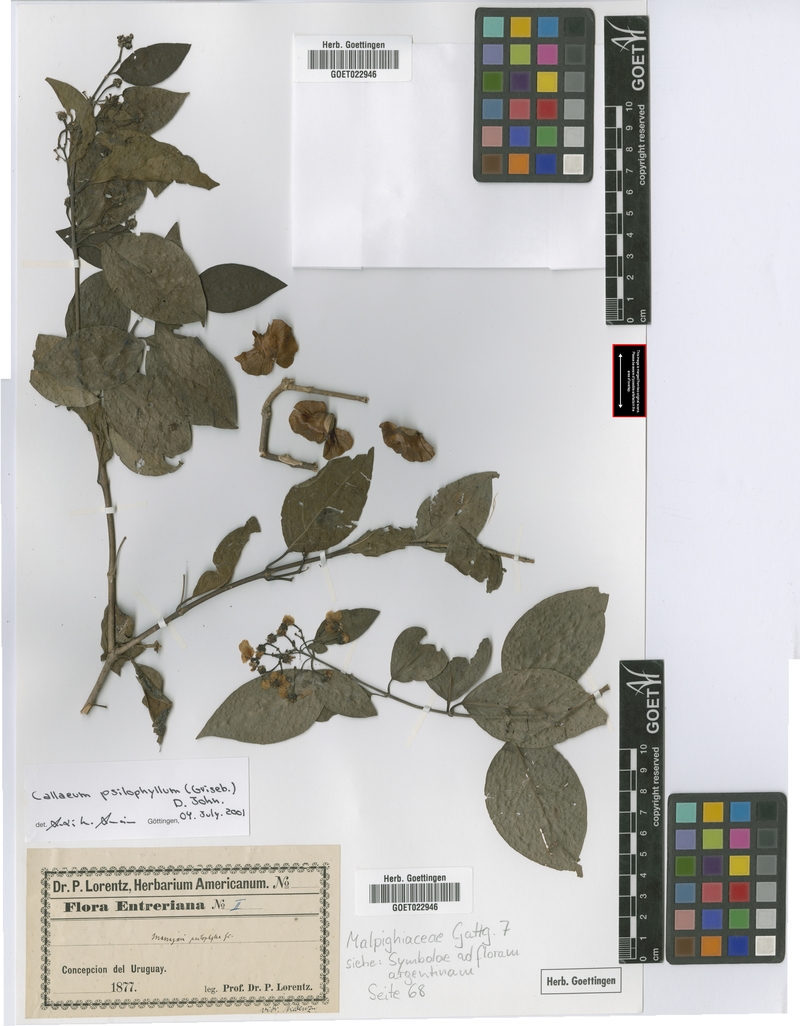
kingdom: Plantae
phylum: Tracheophyta
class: Magnoliopsida
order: Malpighiales
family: Malpighiaceae
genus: Callaeum
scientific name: Callaeum psilophyllum
